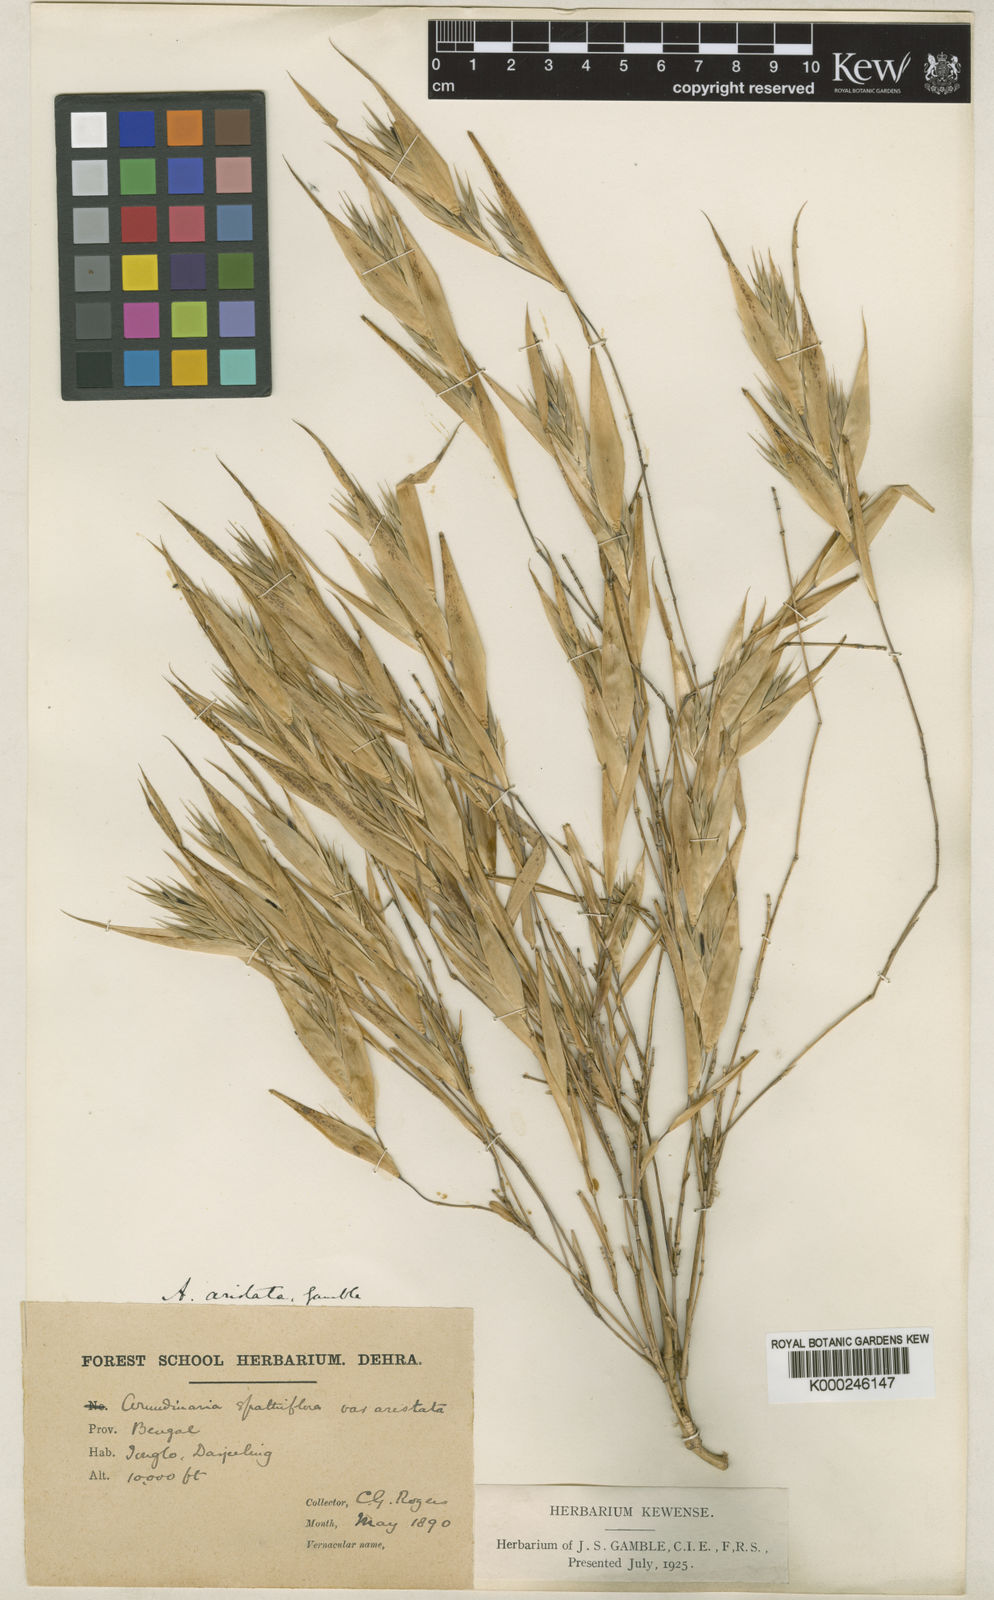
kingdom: Plantae
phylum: Tracheophyta
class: Liliopsida
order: Poales
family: Poaceae
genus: Thamnocalamus
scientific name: Thamnocalamus chigar
